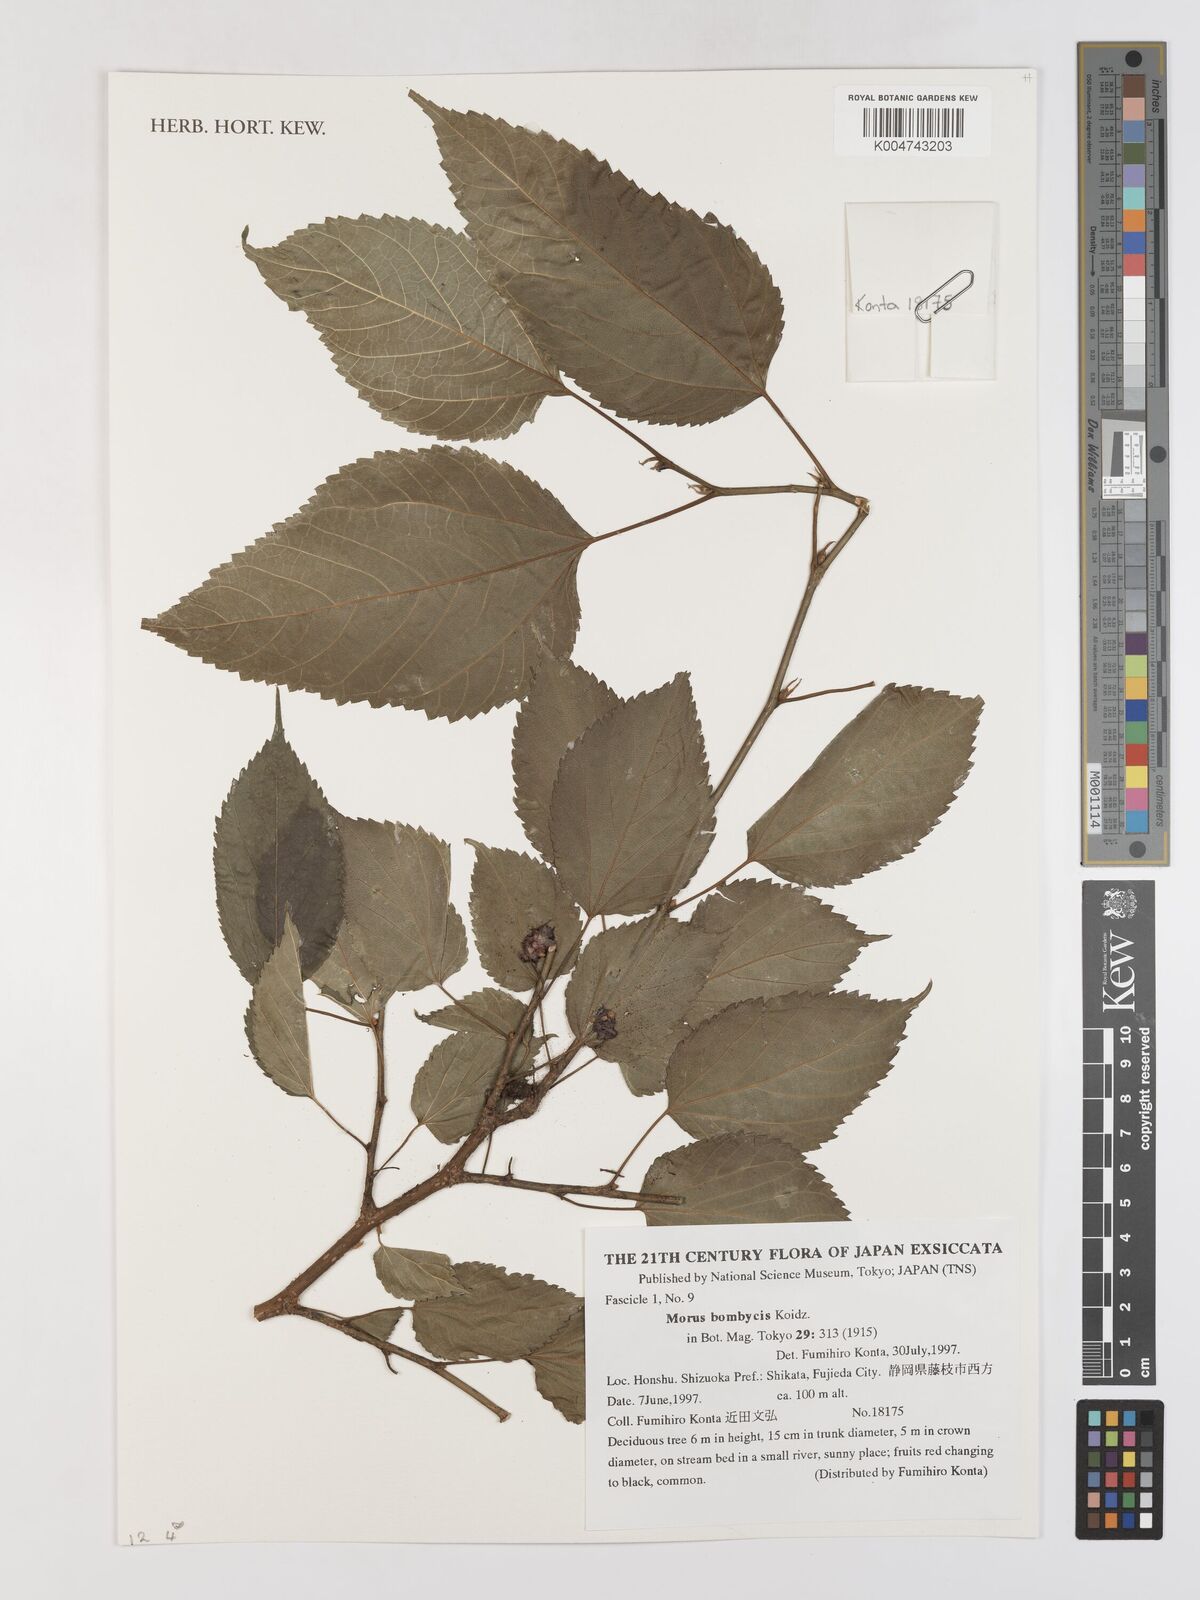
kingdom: Plantae
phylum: Tracheophyta
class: Magnoliopsida
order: Rosales
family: Moraceae
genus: Morus
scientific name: Morus indica
